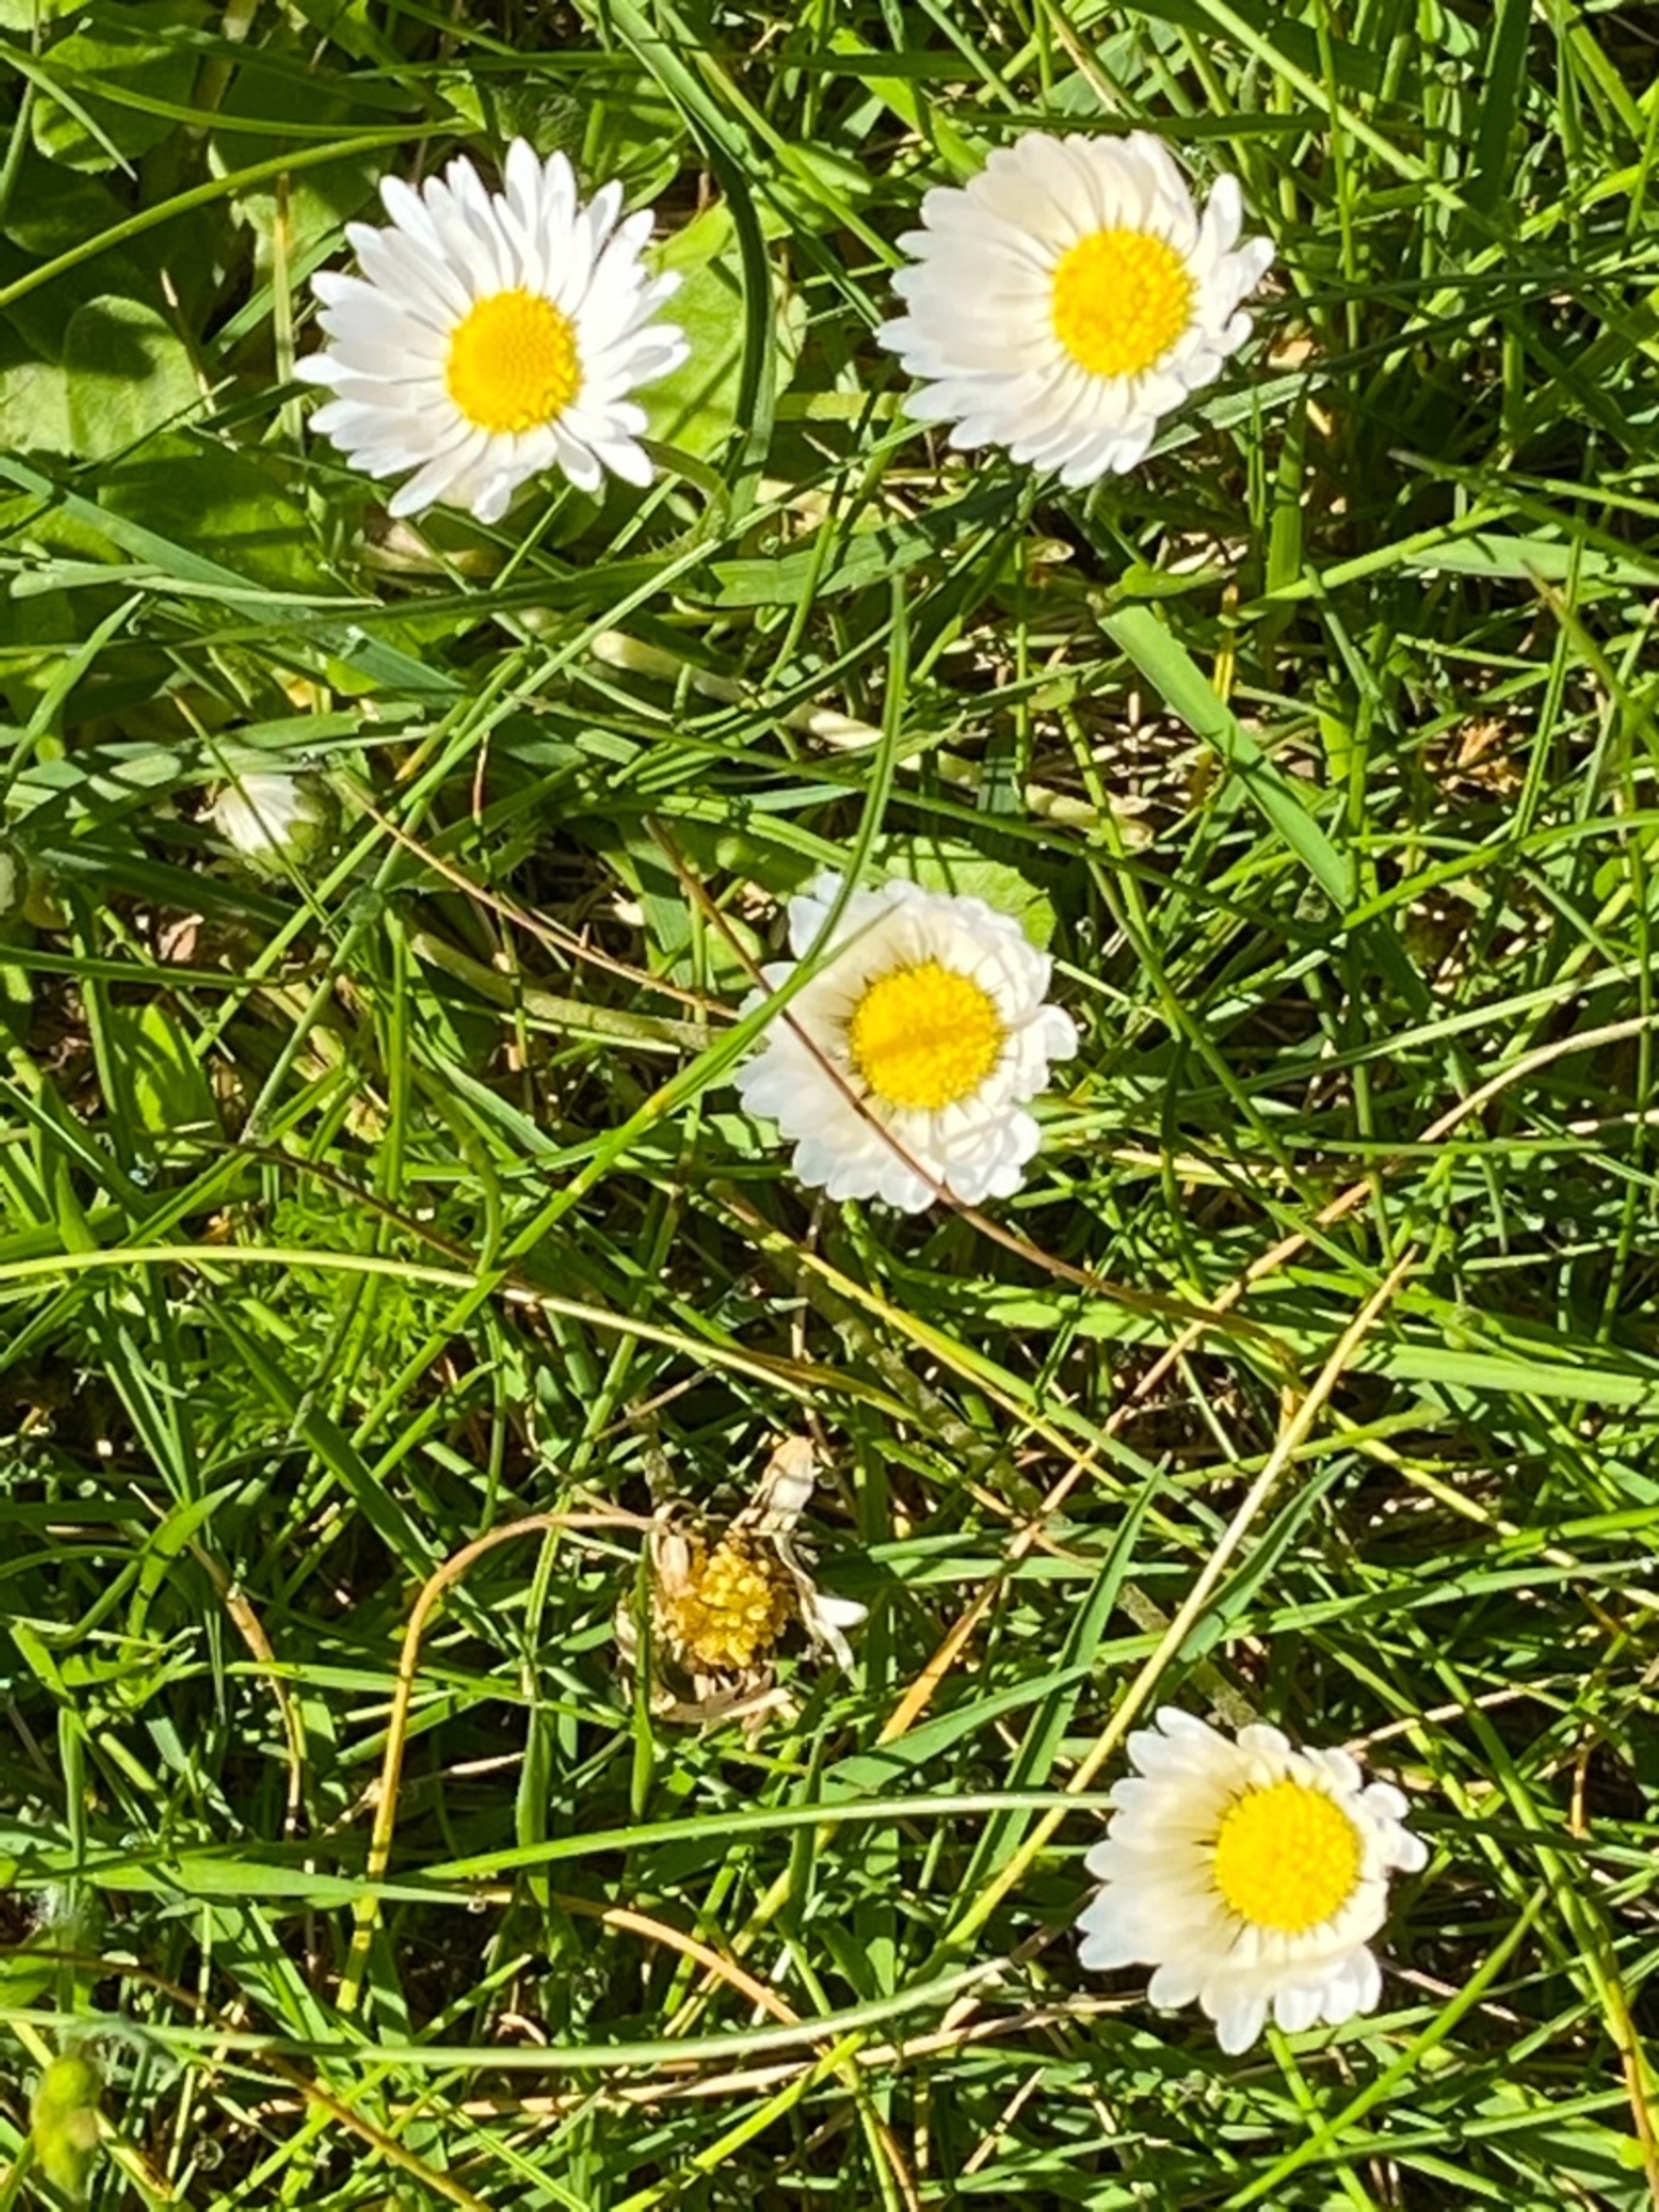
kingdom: Plantae
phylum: Tracheophyta
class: Magnoliopsida
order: Asterales
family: Asteraceae
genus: Bellis
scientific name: Bellis perennis
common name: Tusindfryd
